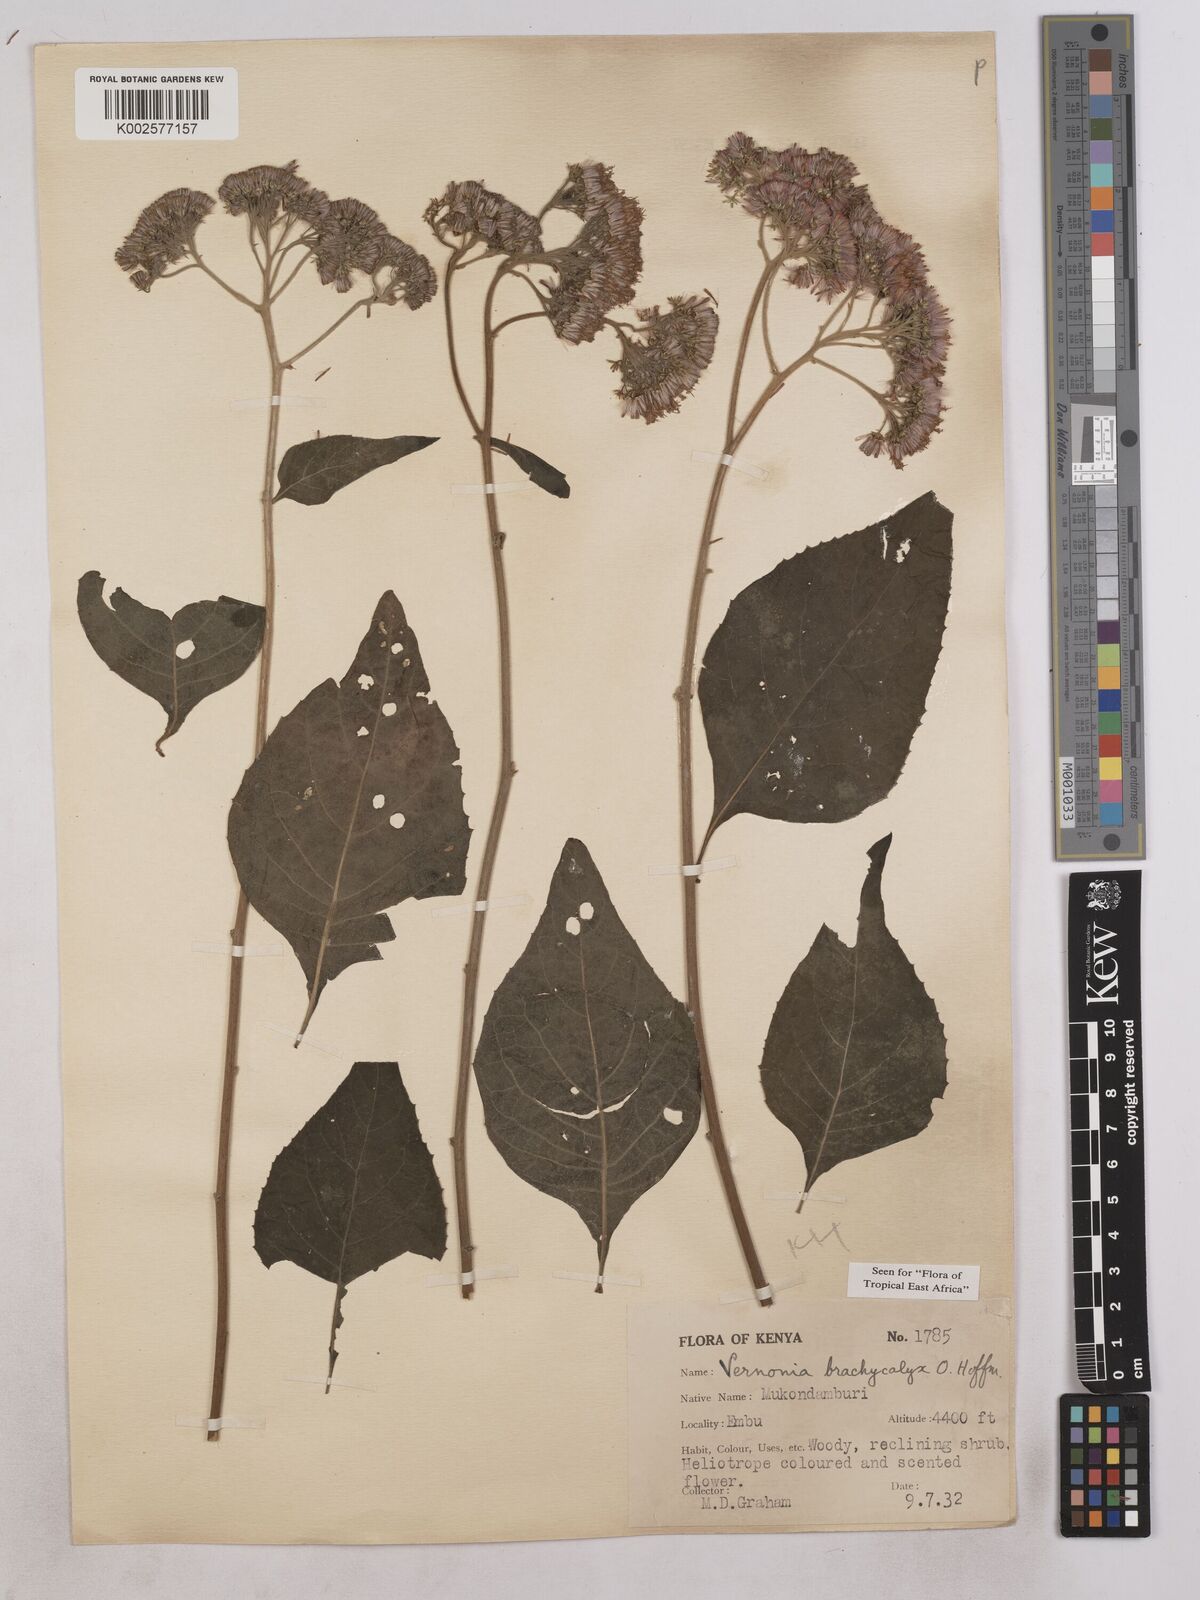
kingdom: Plantae
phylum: Tracheophyta
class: Magnoliopsida
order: Asterales
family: Asteraceae
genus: Hoffmannanthus
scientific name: Hoffmannanthus abbotianus
